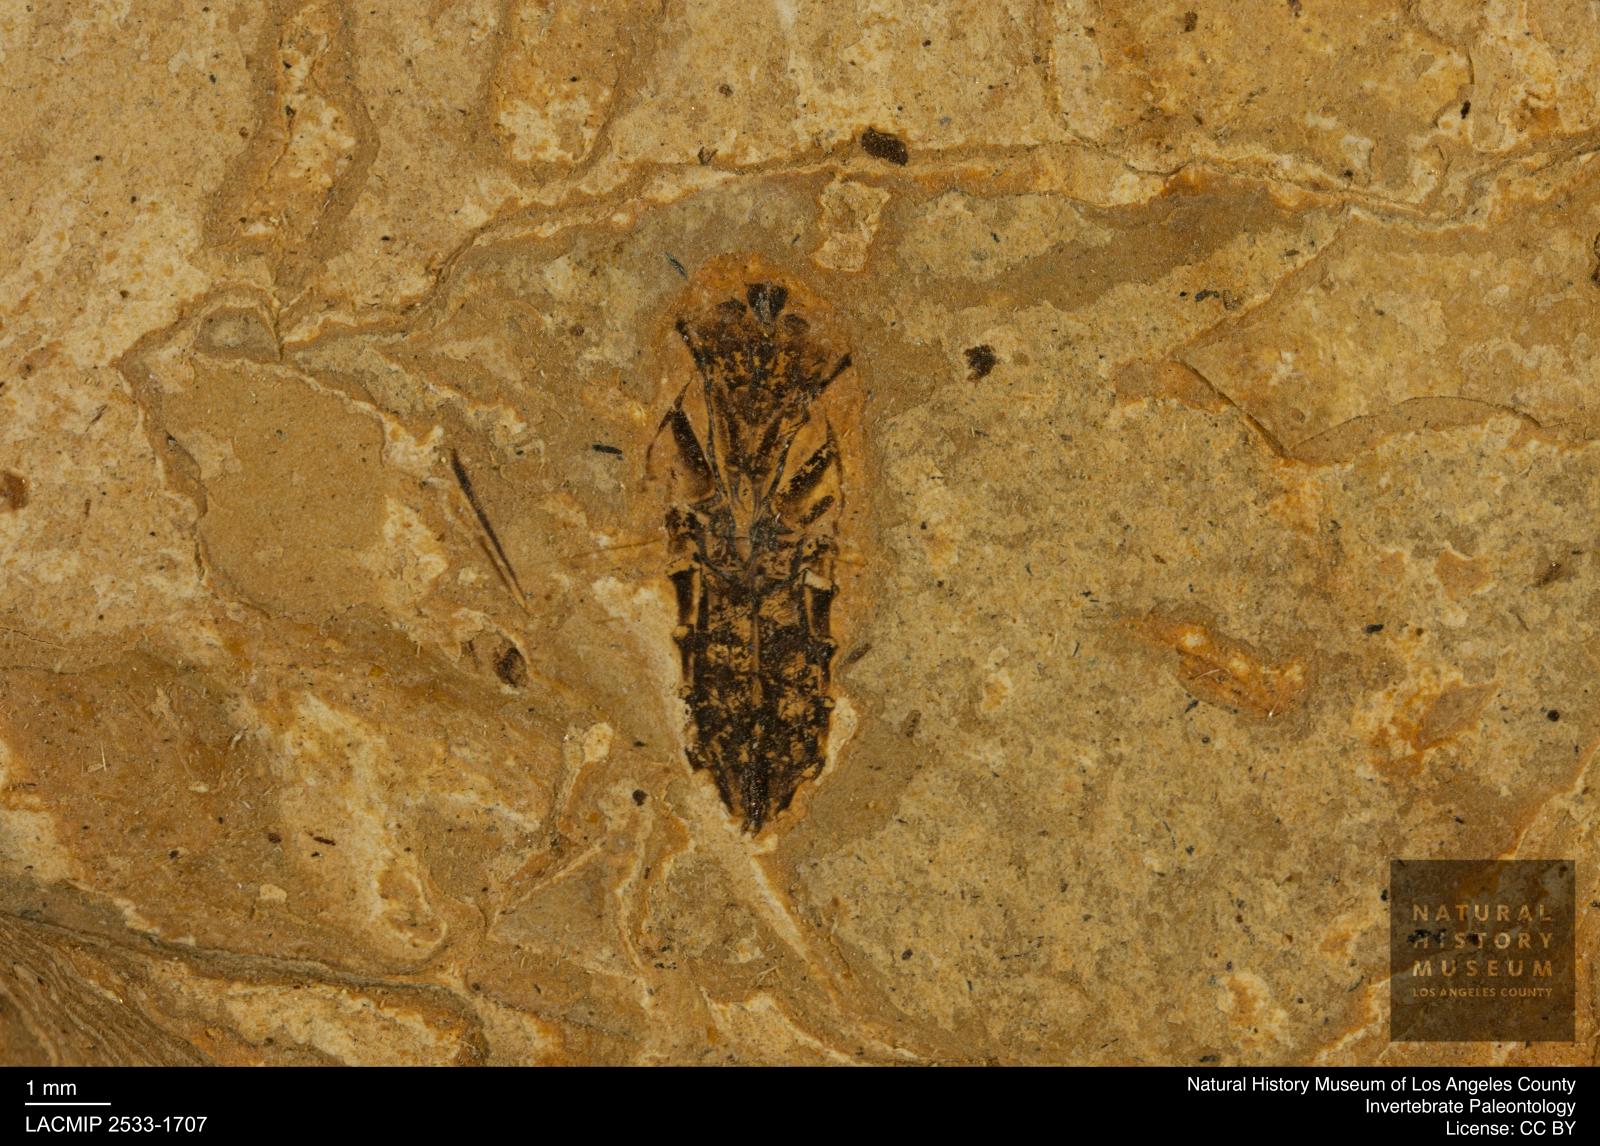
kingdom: Animalia
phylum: Arthropoda
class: Insecta
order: Hemiptera
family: Notonectidae
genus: Notonecta
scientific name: Notonecta
